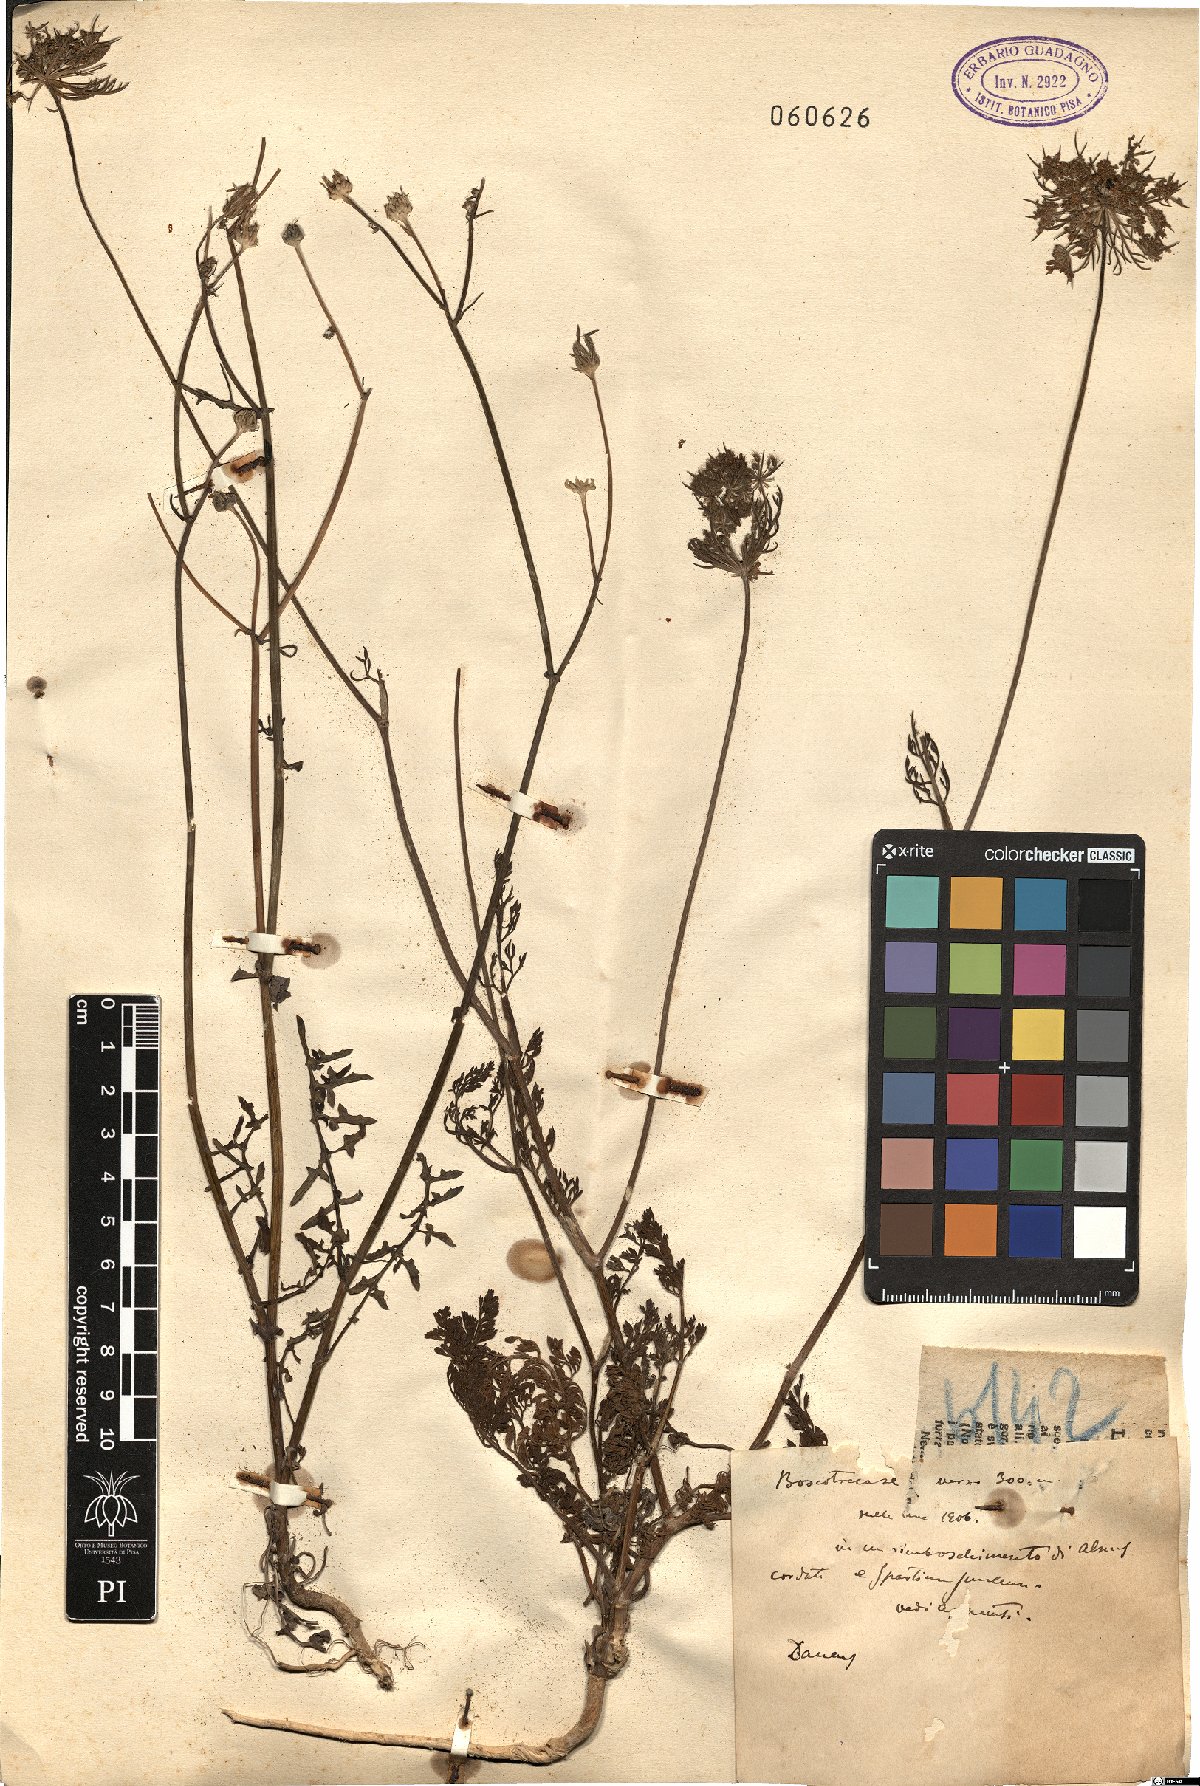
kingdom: Plantae
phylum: Tracheophyta
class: Magnoliopsida
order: Apiales
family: Apiaceae
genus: Daucus
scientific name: Daucus
